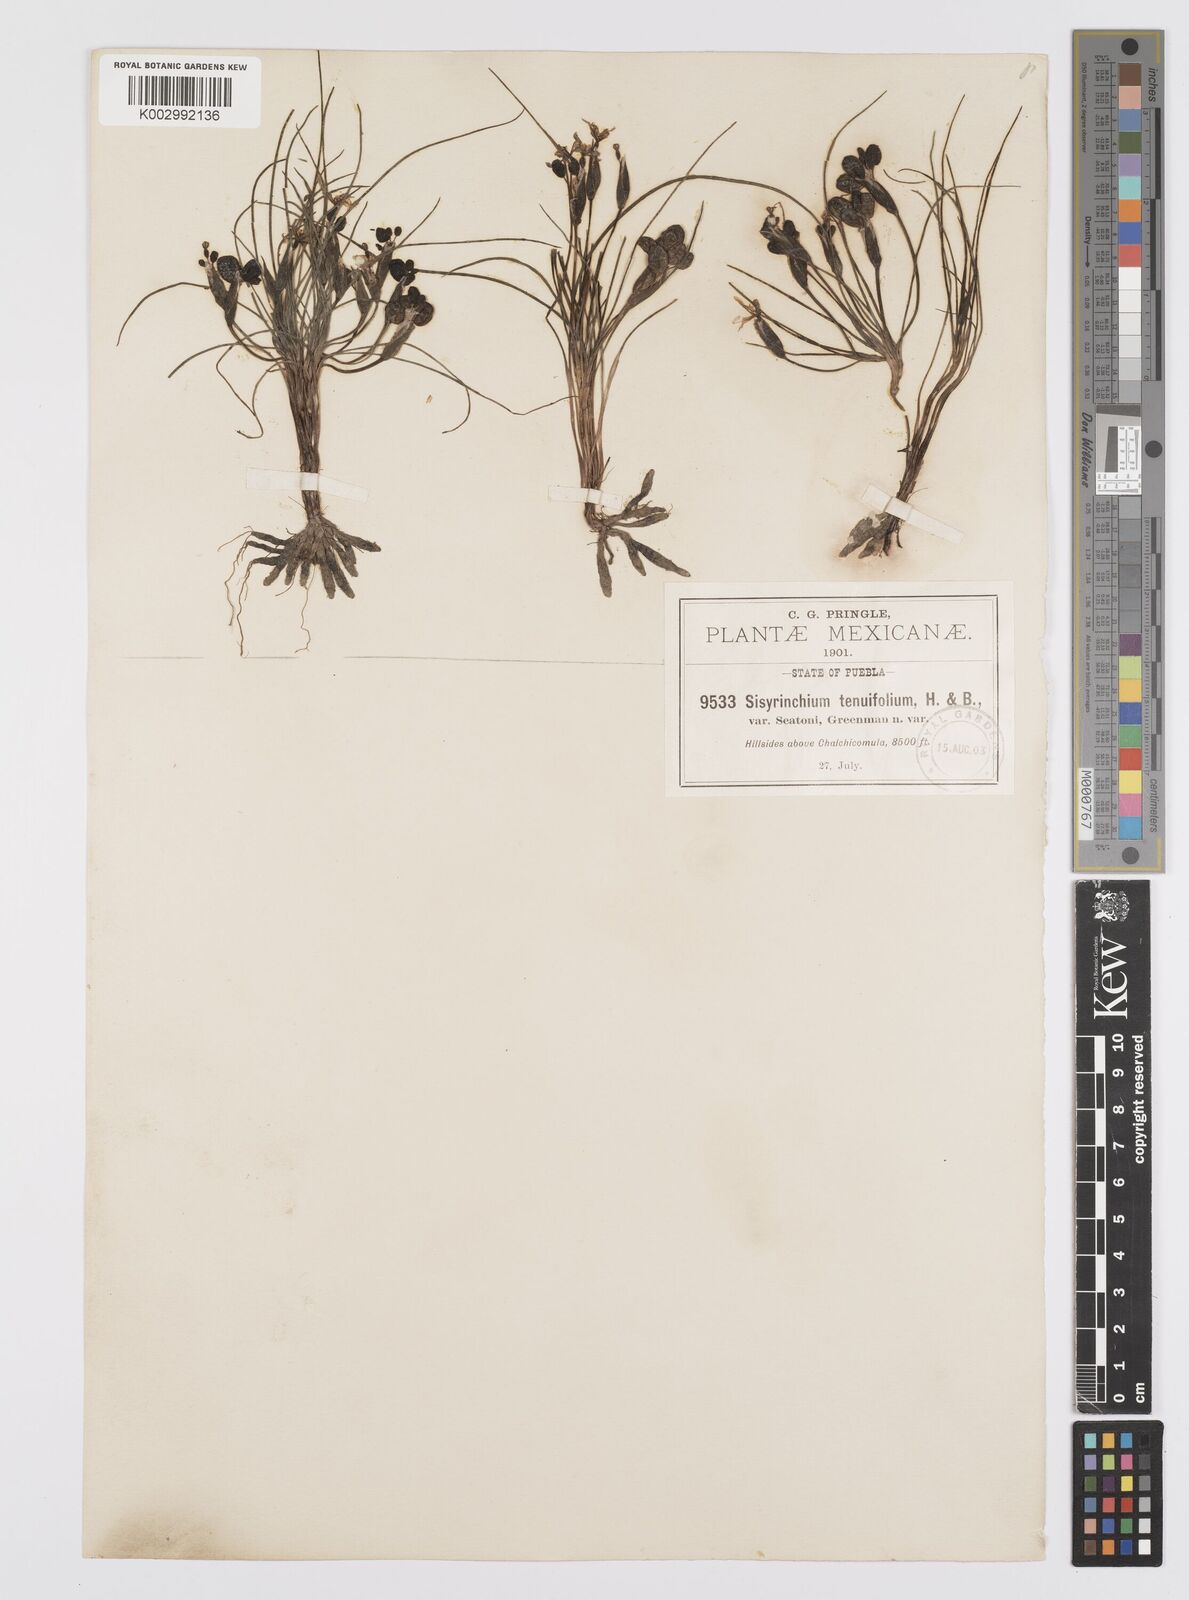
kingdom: Plantae
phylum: Tracheophyta
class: Liliopsida
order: Asparagales
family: Iridaceae
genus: Sisyrinchium
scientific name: Sisyrinchium langloisii
